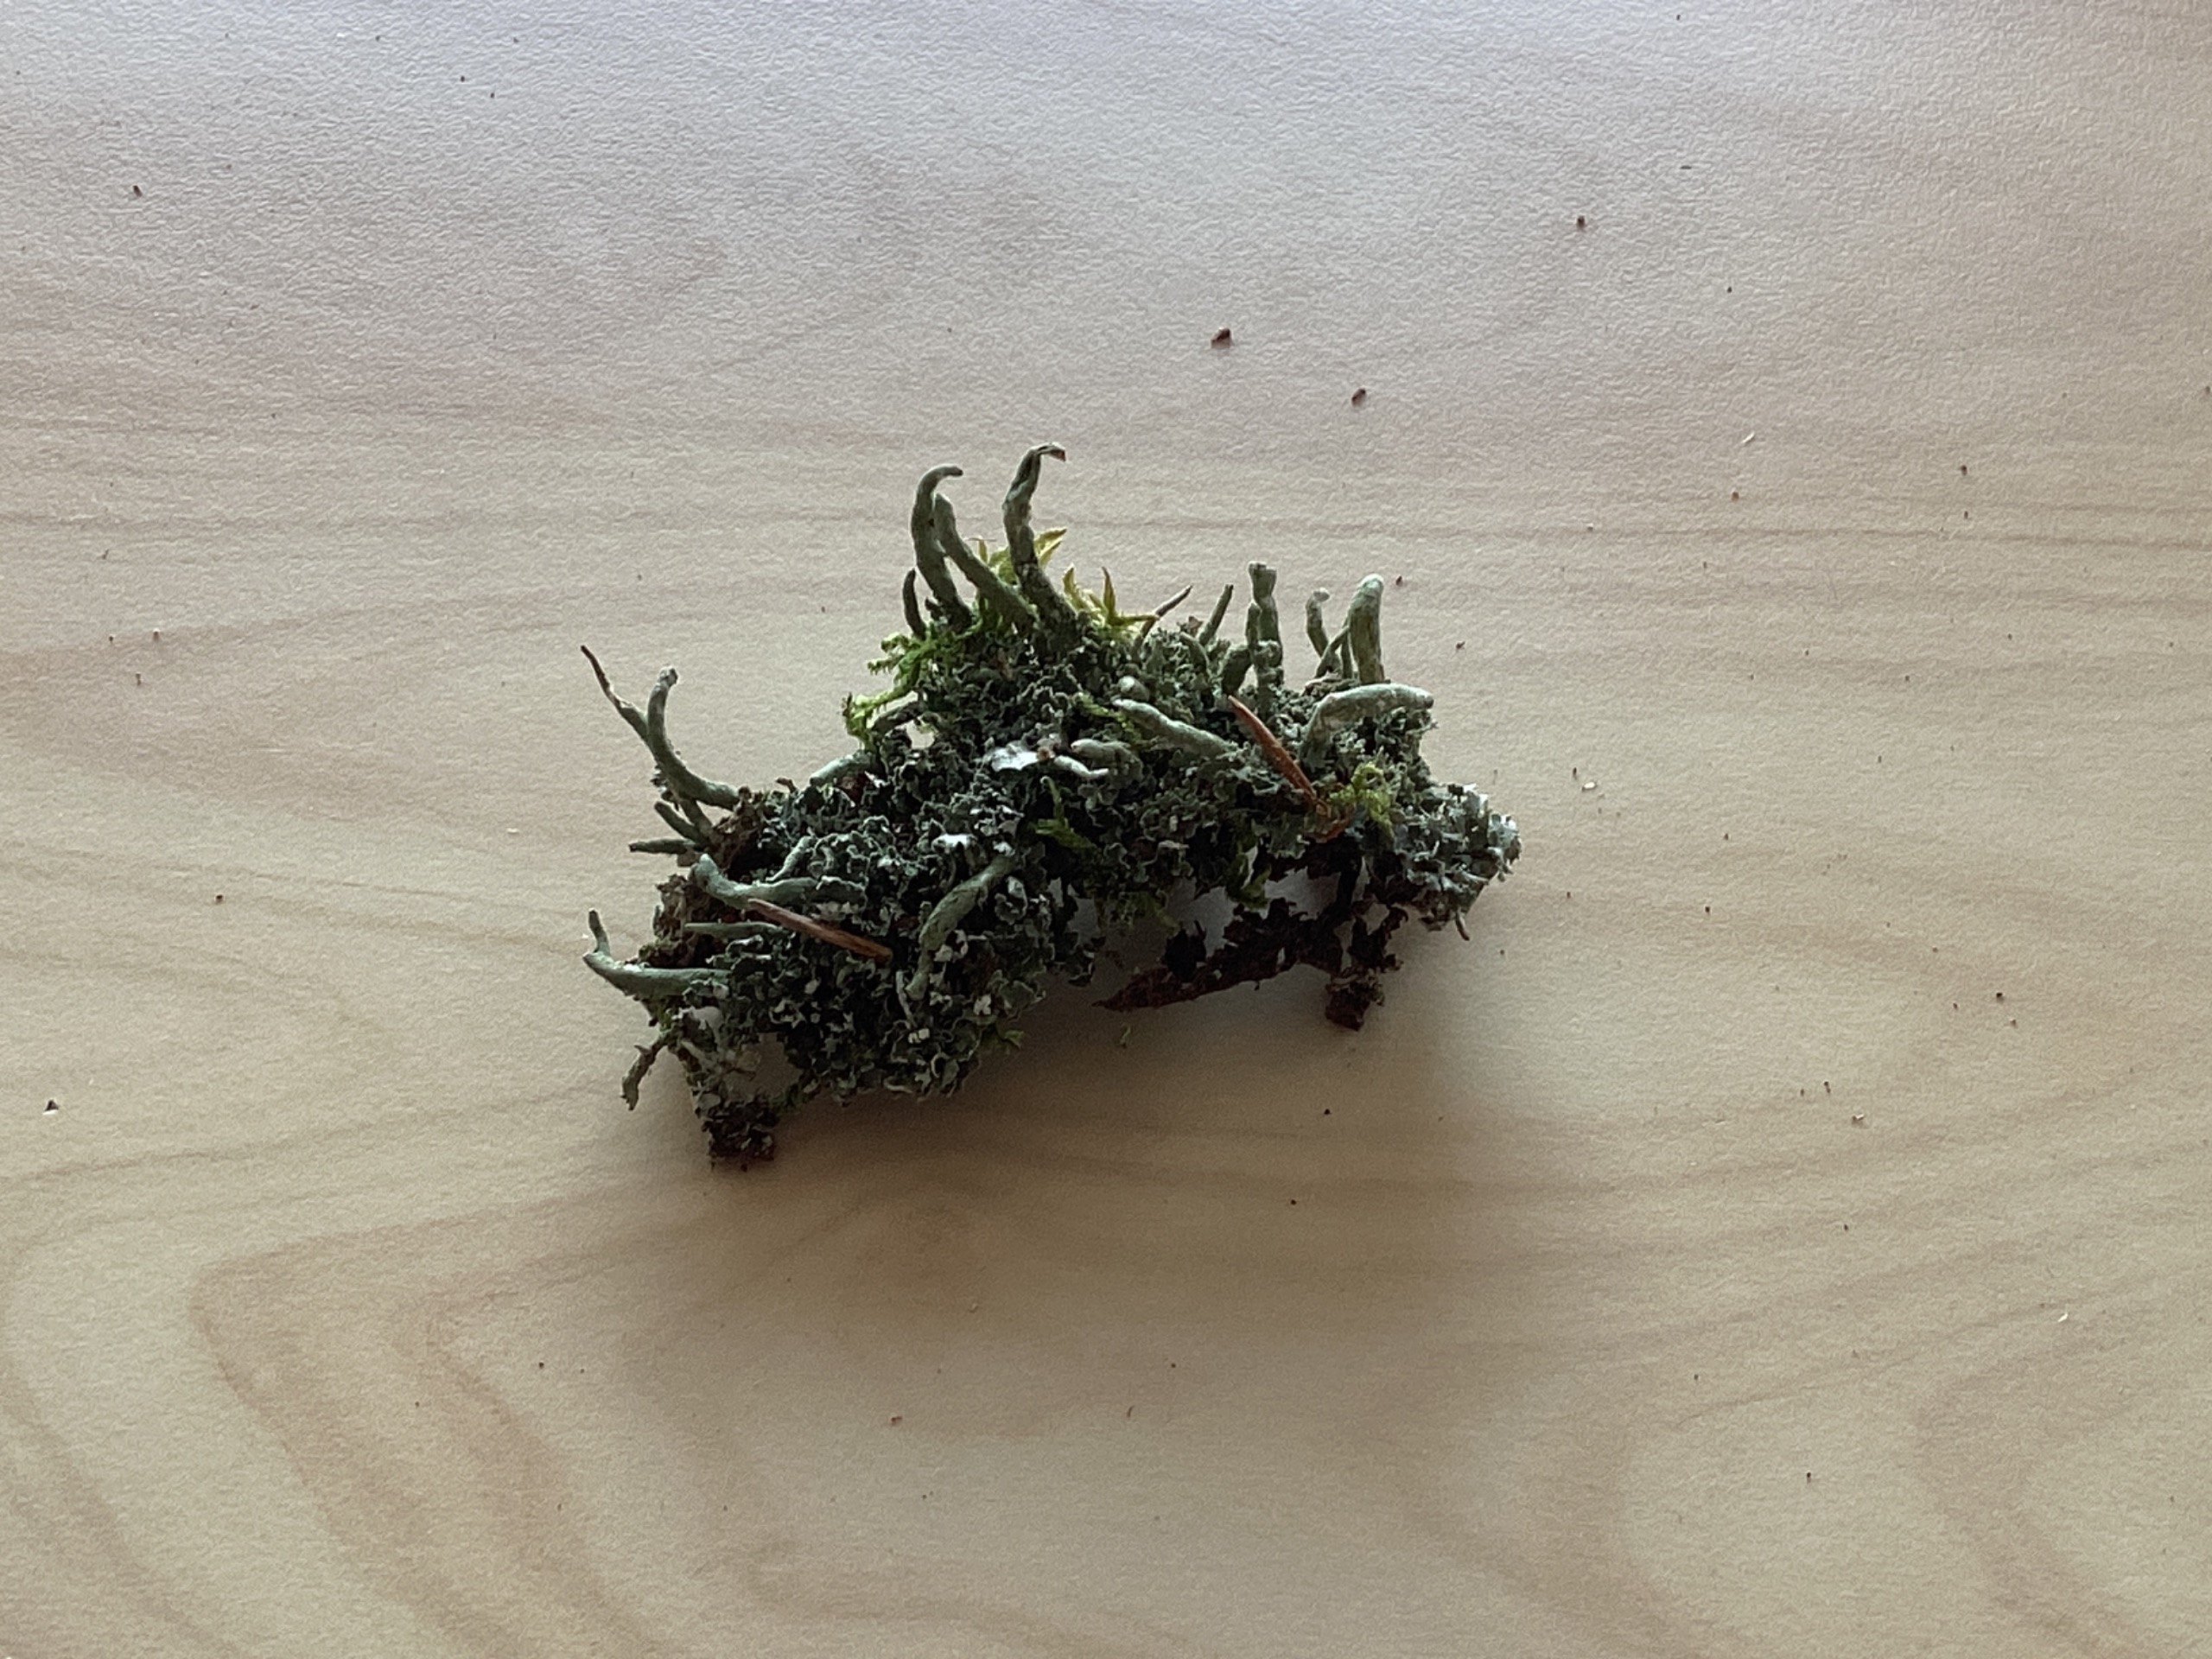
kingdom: Fungi
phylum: Ascomycota
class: Lecanoromycetes
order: Lecanorales
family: Cladoniaceae
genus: Cladonia
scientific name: Cladonia coniocraea
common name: Træfods-bægerlav
